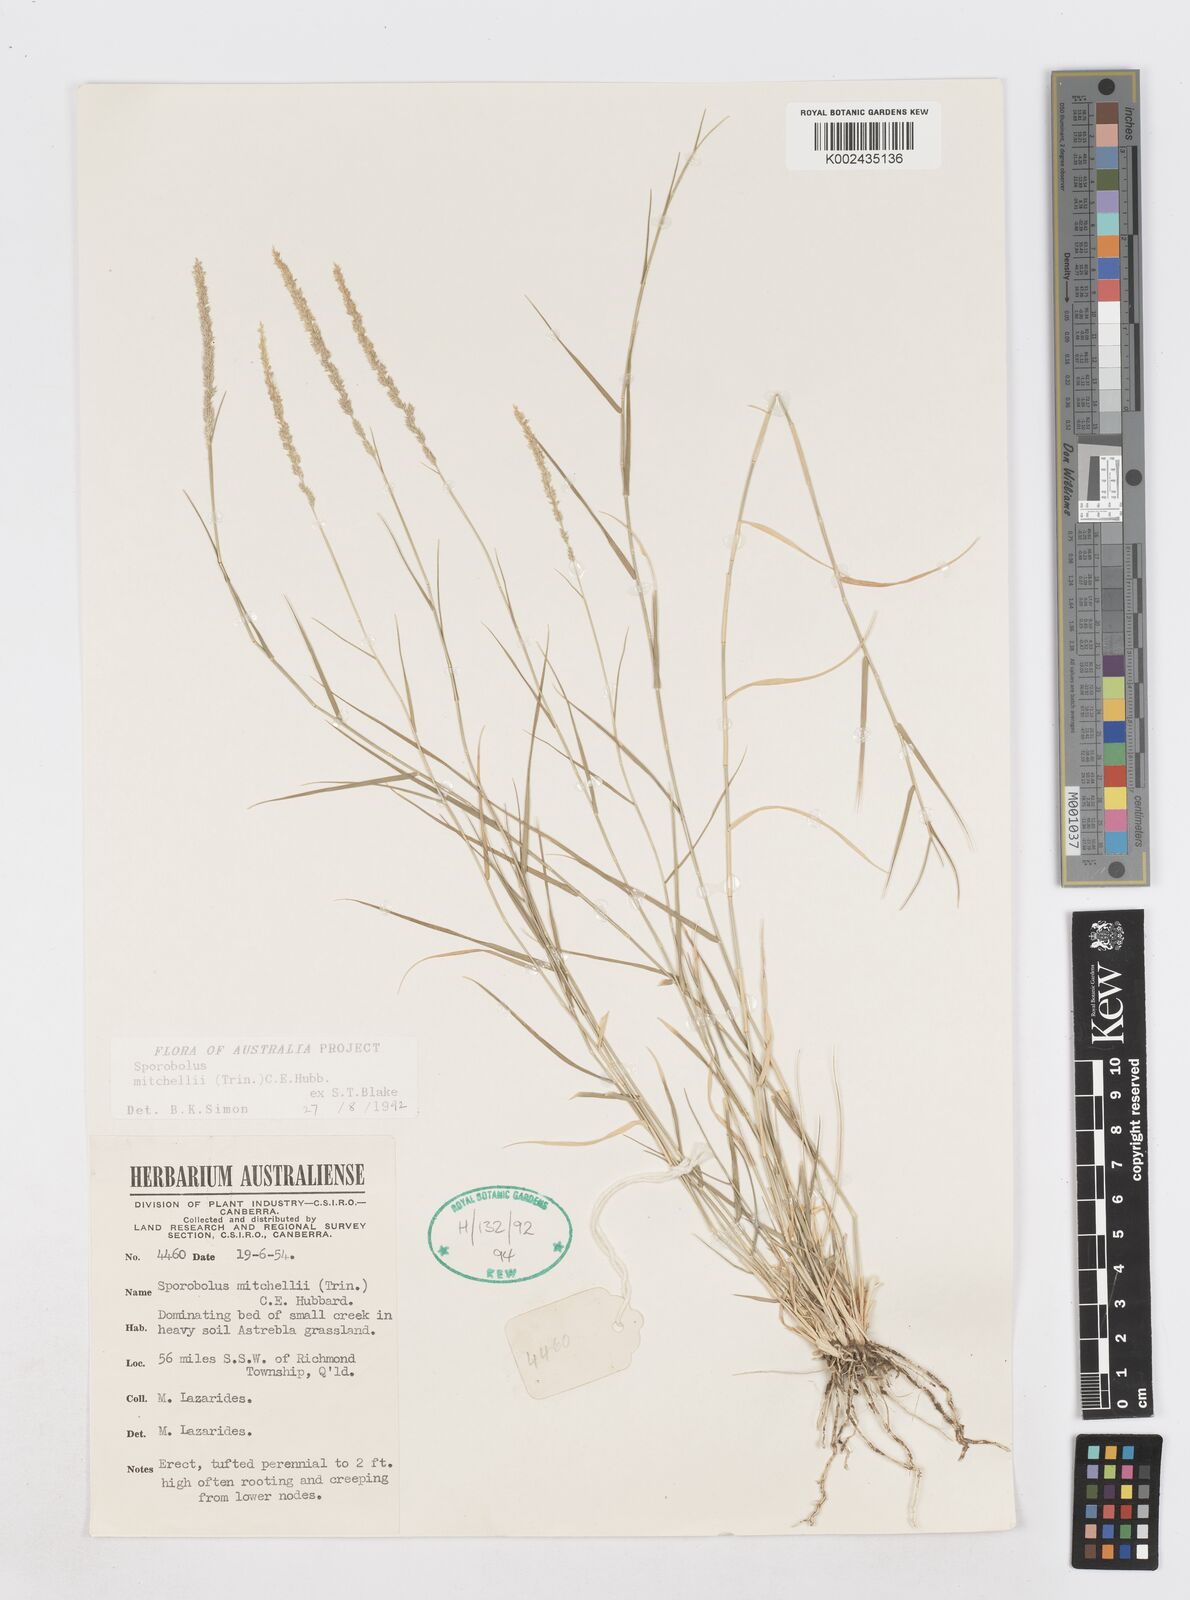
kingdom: Plantae
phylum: Tracheophyta
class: Liliopsida
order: Poales
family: Poaceae
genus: Sporobolus
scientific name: Sporobolus mitchellii
